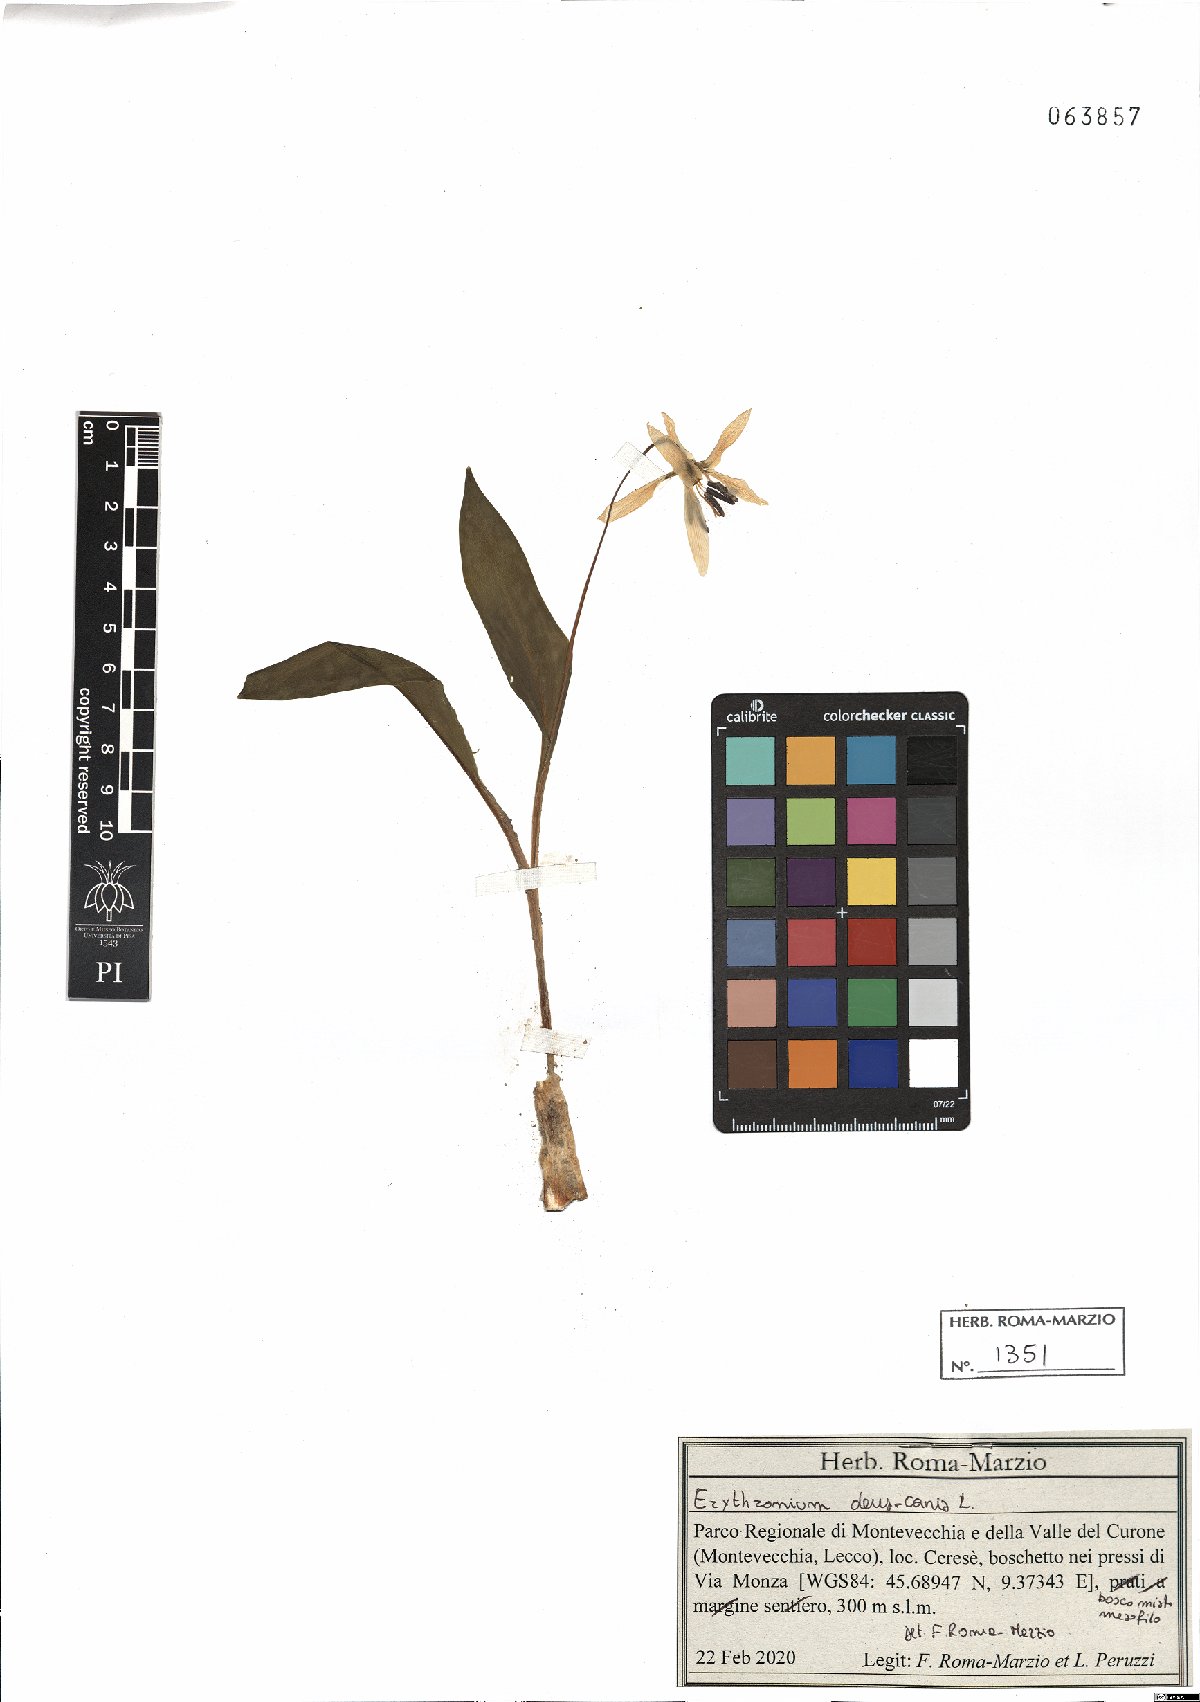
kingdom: Plantae
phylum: Tracheophyta
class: Liliopsida
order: Liliales
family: Liliaceae
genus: Erythronium
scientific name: Erythronium dens-canis
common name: Dog's-tooth-violet
